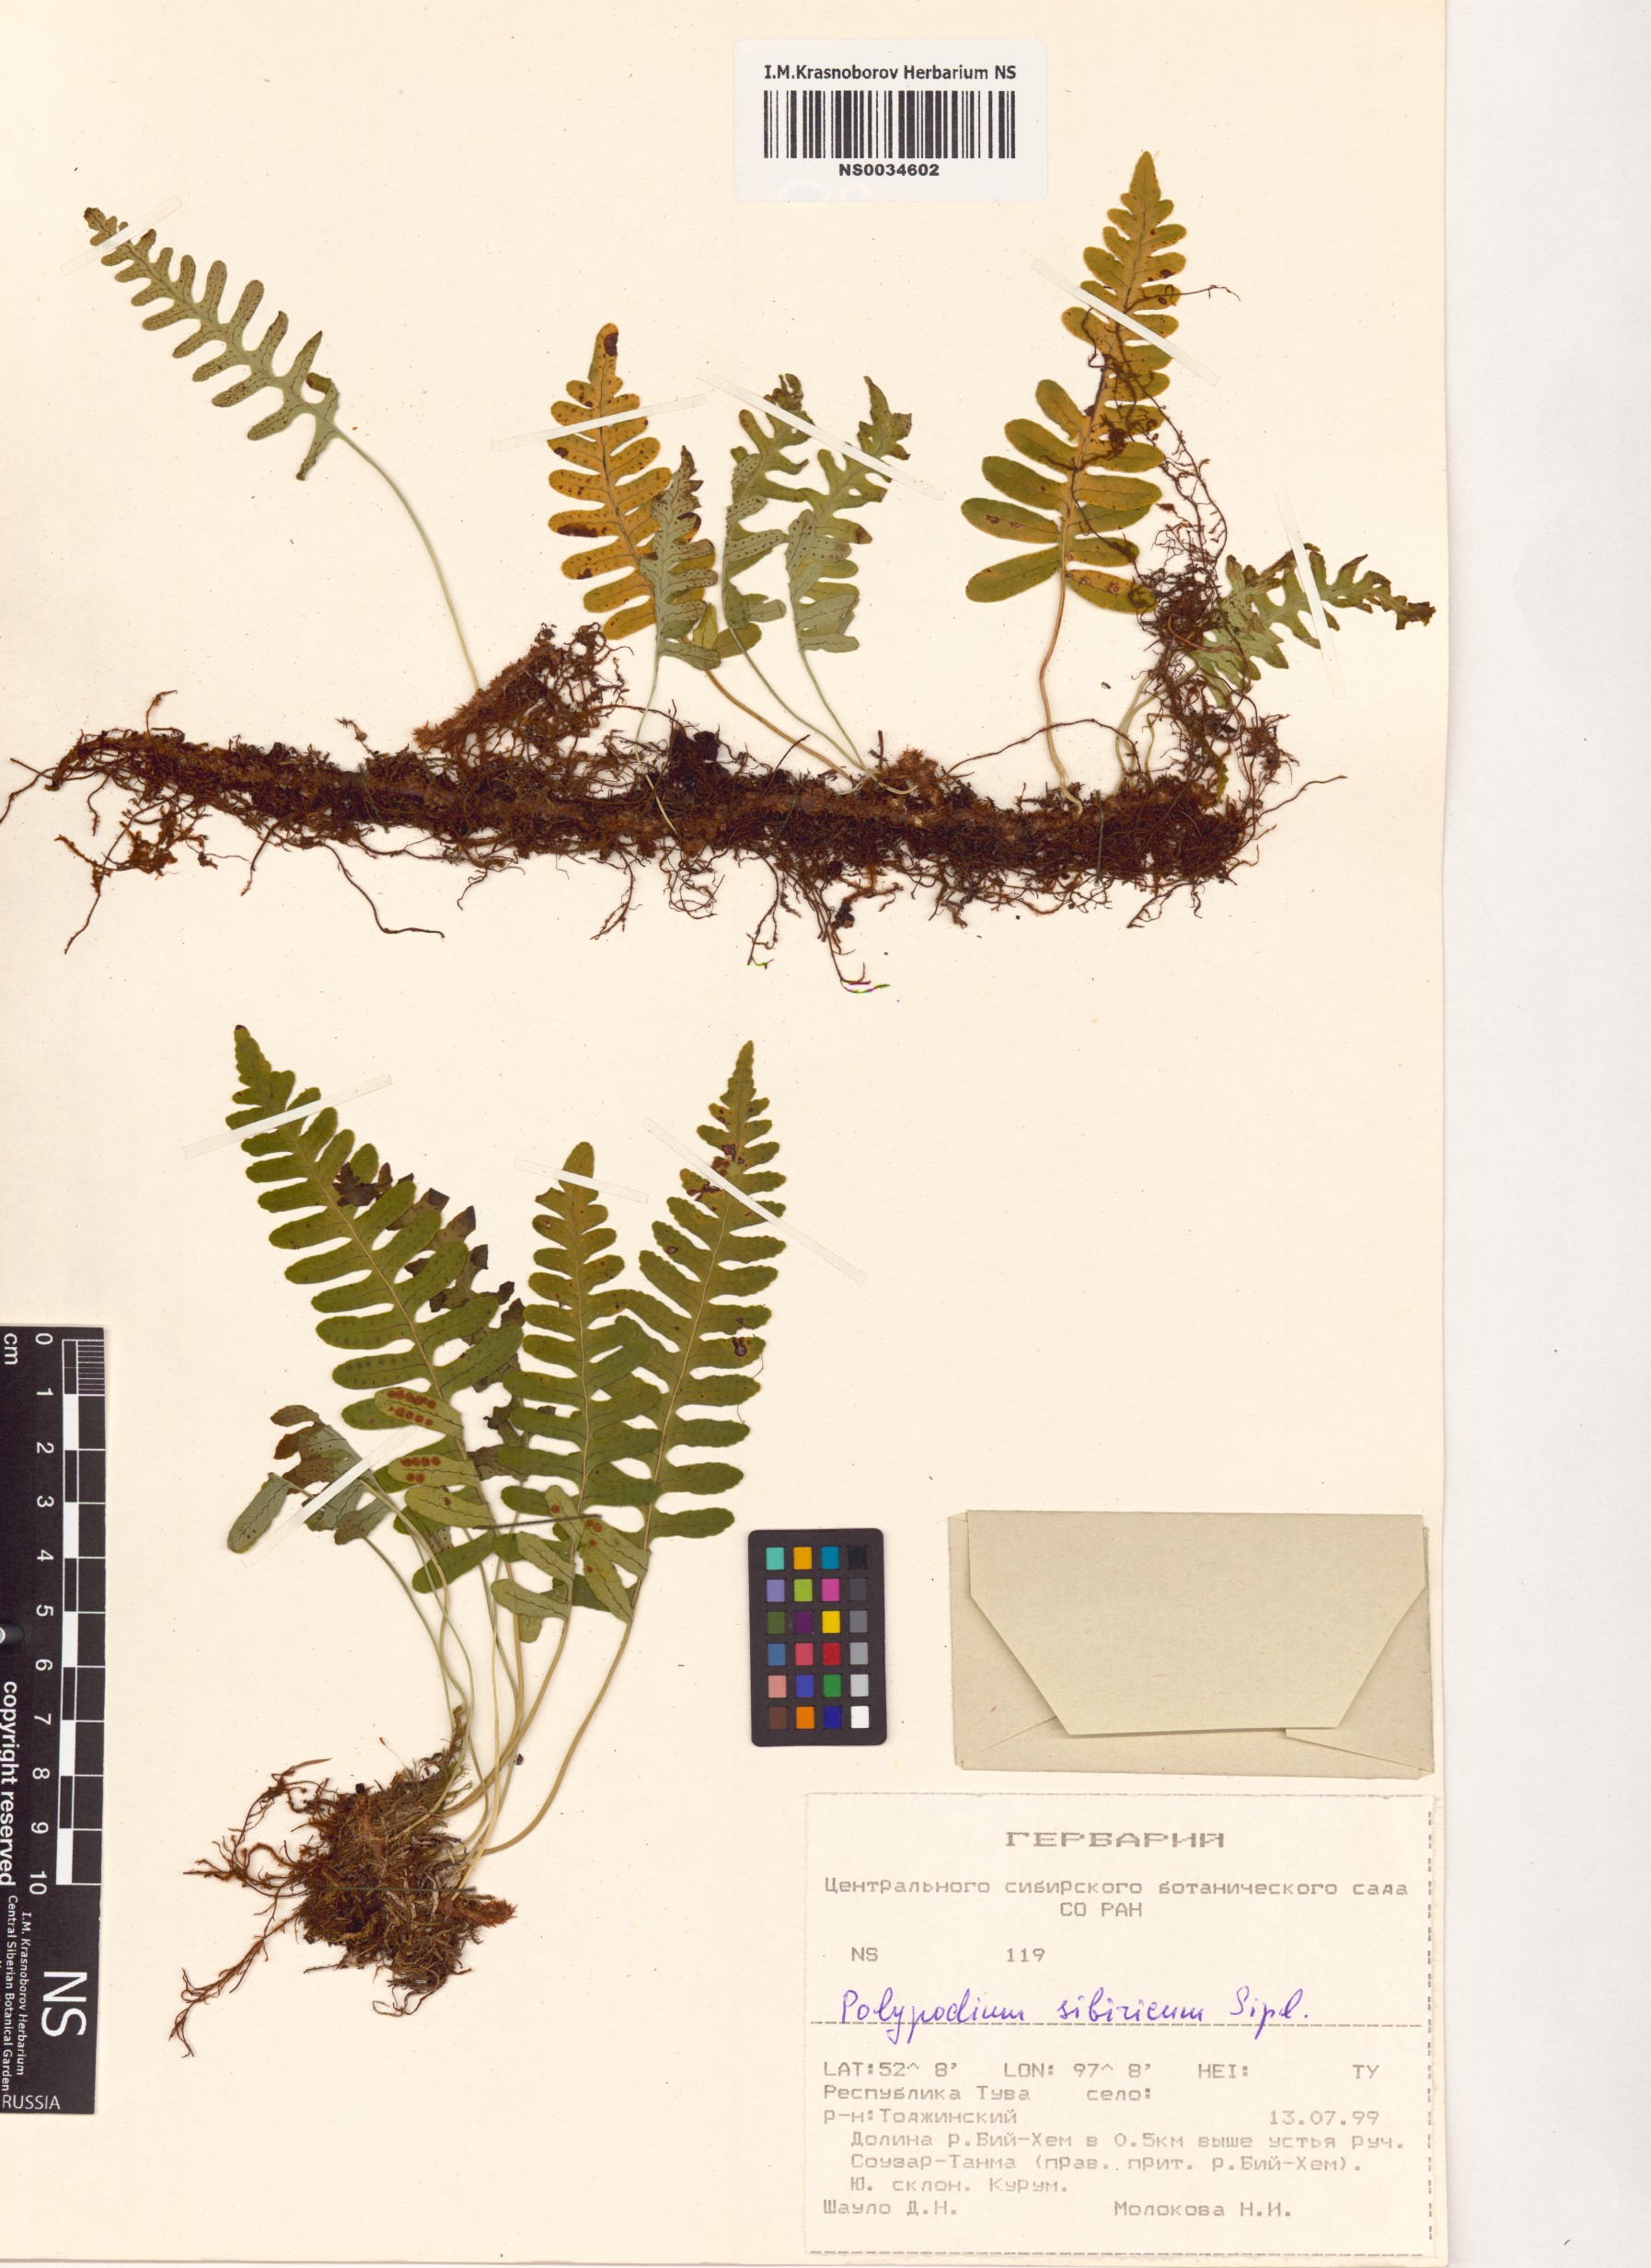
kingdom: Plantae
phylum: Tracheophyta
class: Polypodiopsida
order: Polypodiales
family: Polypodiaceae
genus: Polypodium
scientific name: Polypodium sibiricum
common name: Siberian polypody
